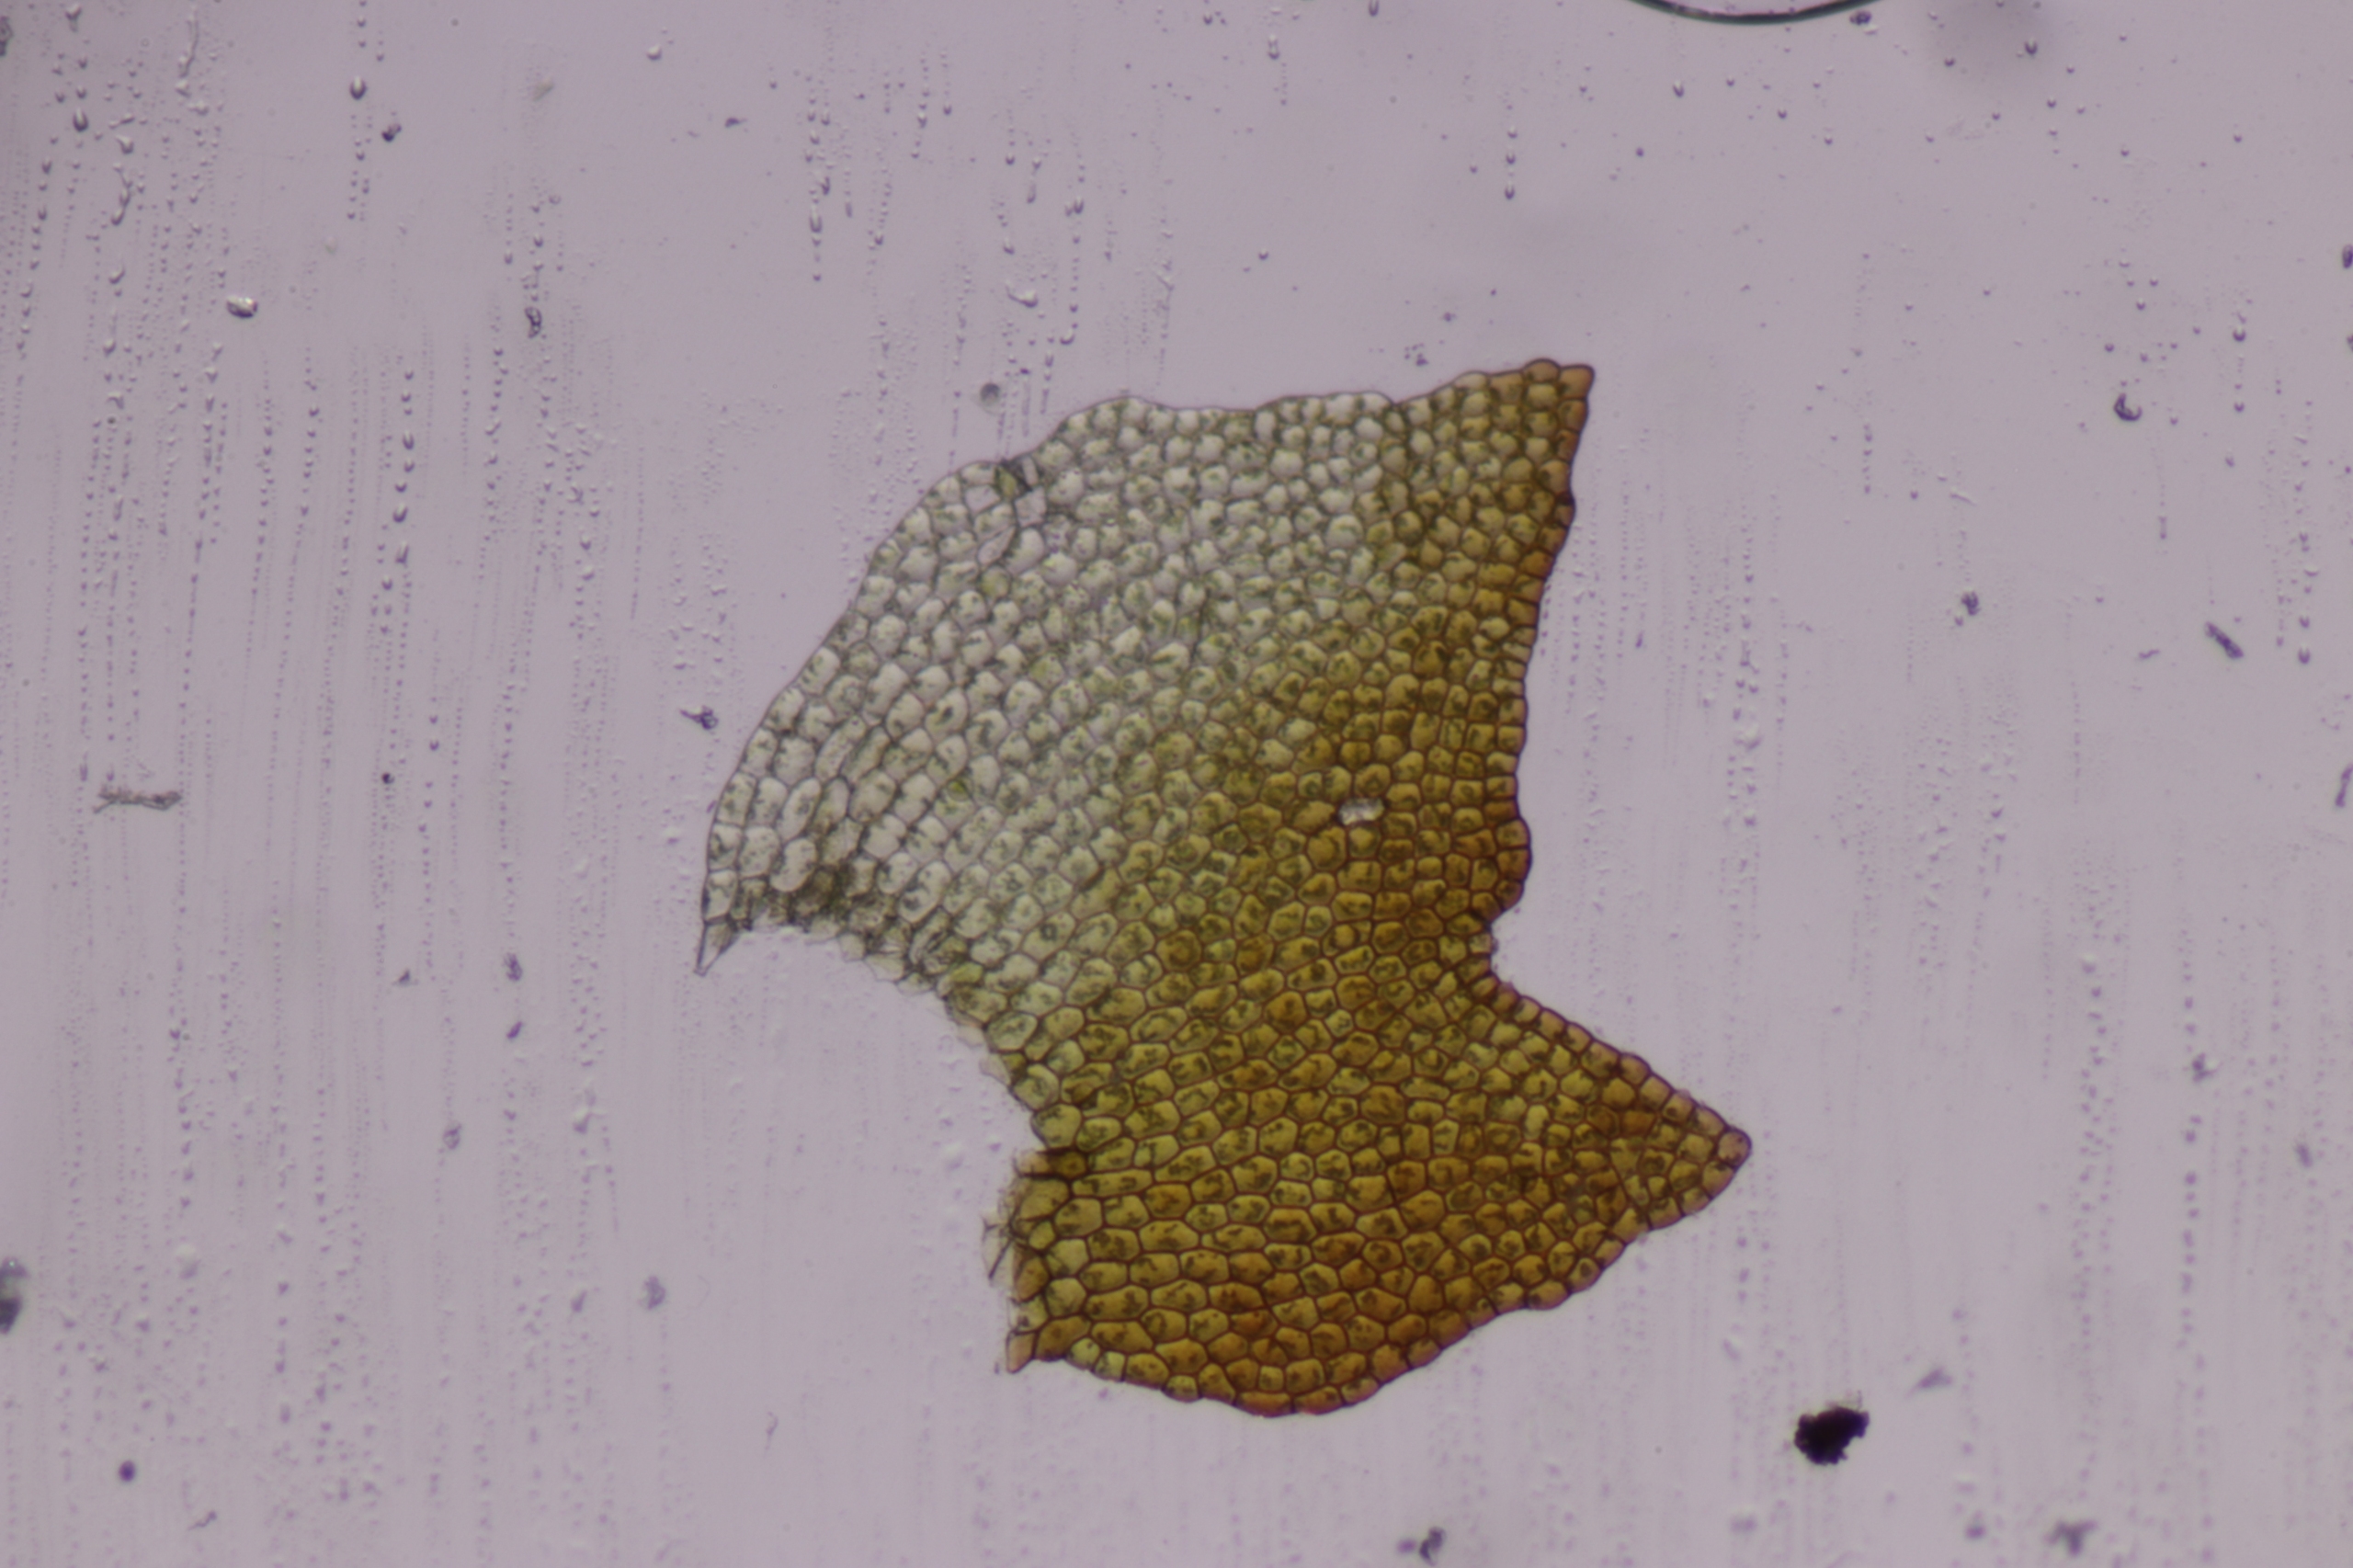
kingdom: Plantae
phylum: Marchantiophyta
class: Jungermanniopsida
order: Jungermanniales
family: Lophoziaceae
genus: Heterogemma
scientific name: Heterogemma capitata
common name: Rød foldbæger
